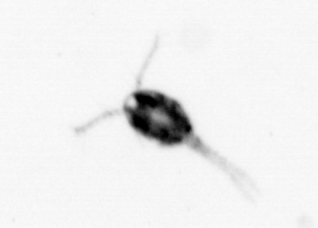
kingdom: Animalia
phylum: Arthropoda
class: Copepoda
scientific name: Copepoda
